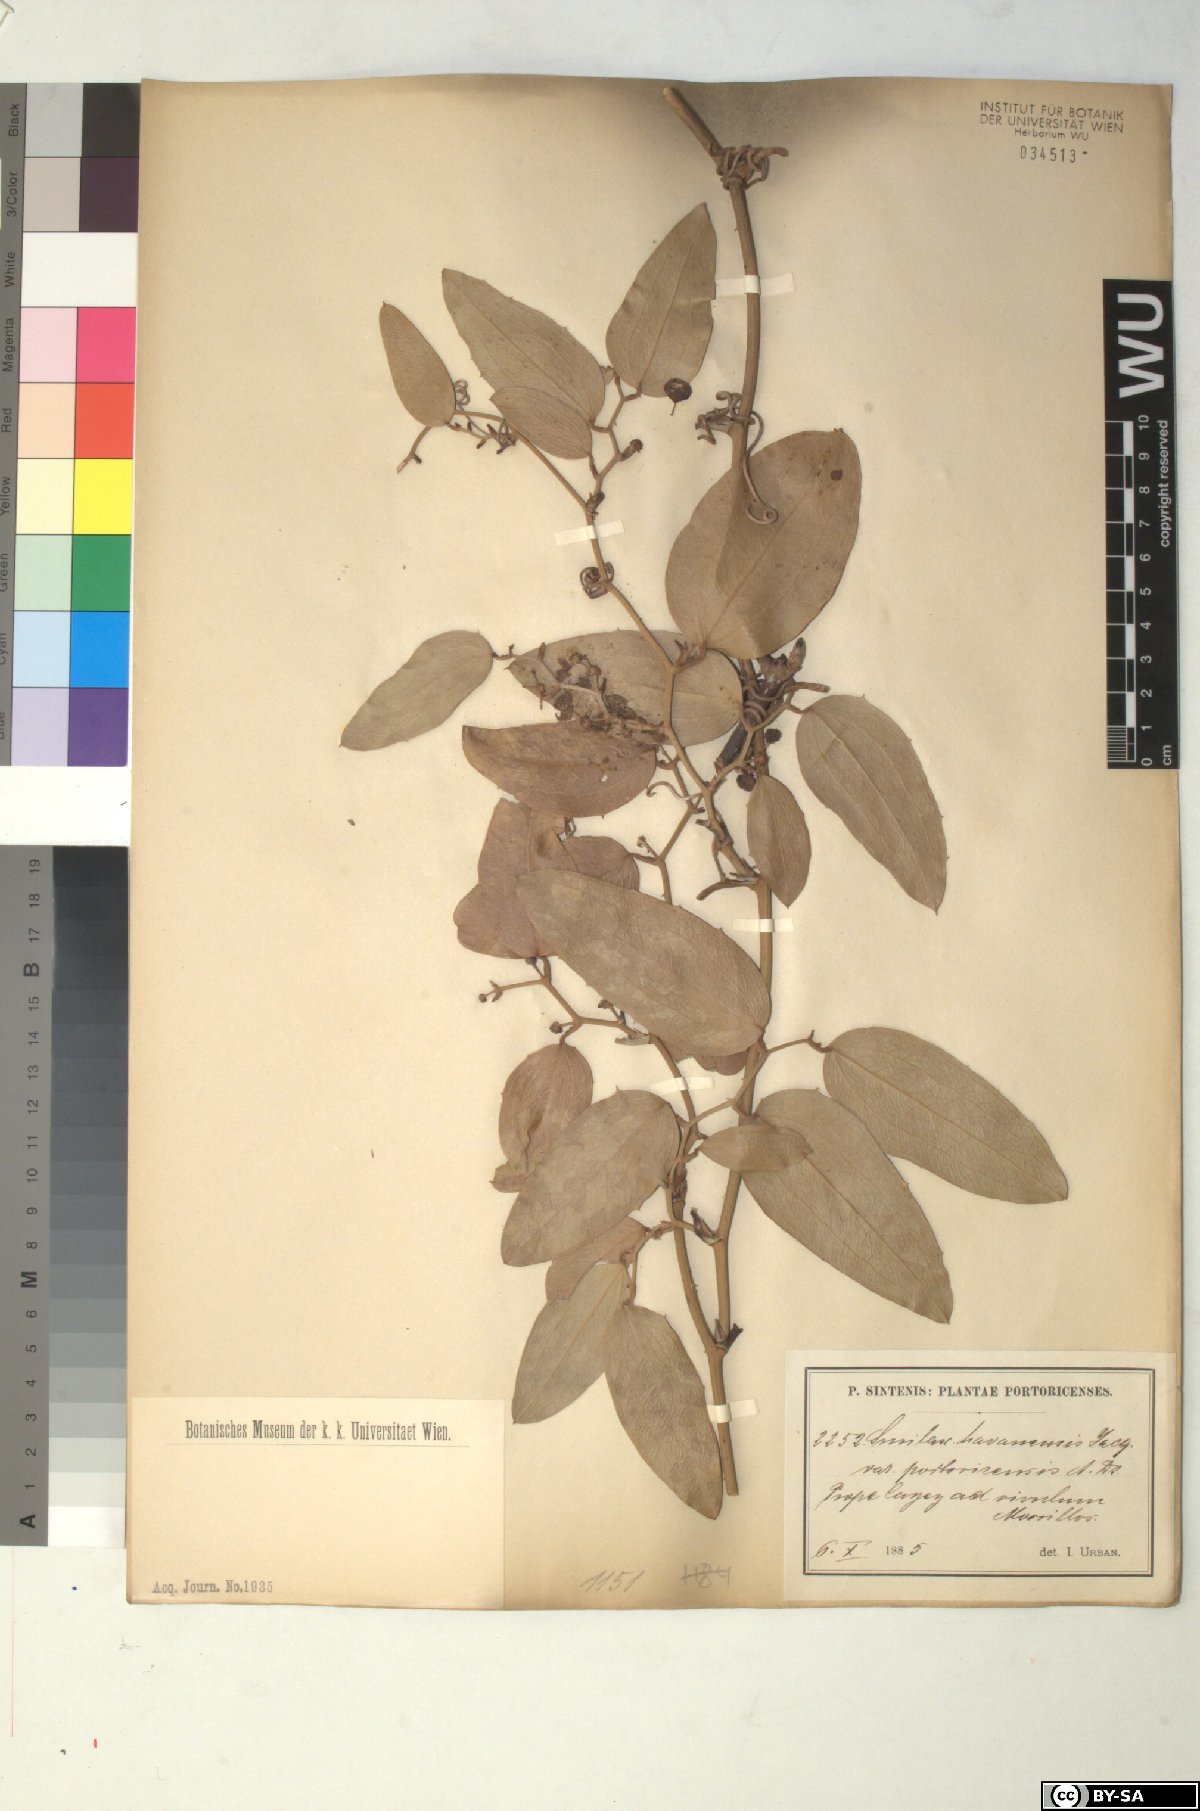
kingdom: Plantae
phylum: Tracheophyta
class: Liliopsida
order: Liliales
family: Smilacaceae
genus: Smilax
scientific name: Smilax coriacea
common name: White withe
